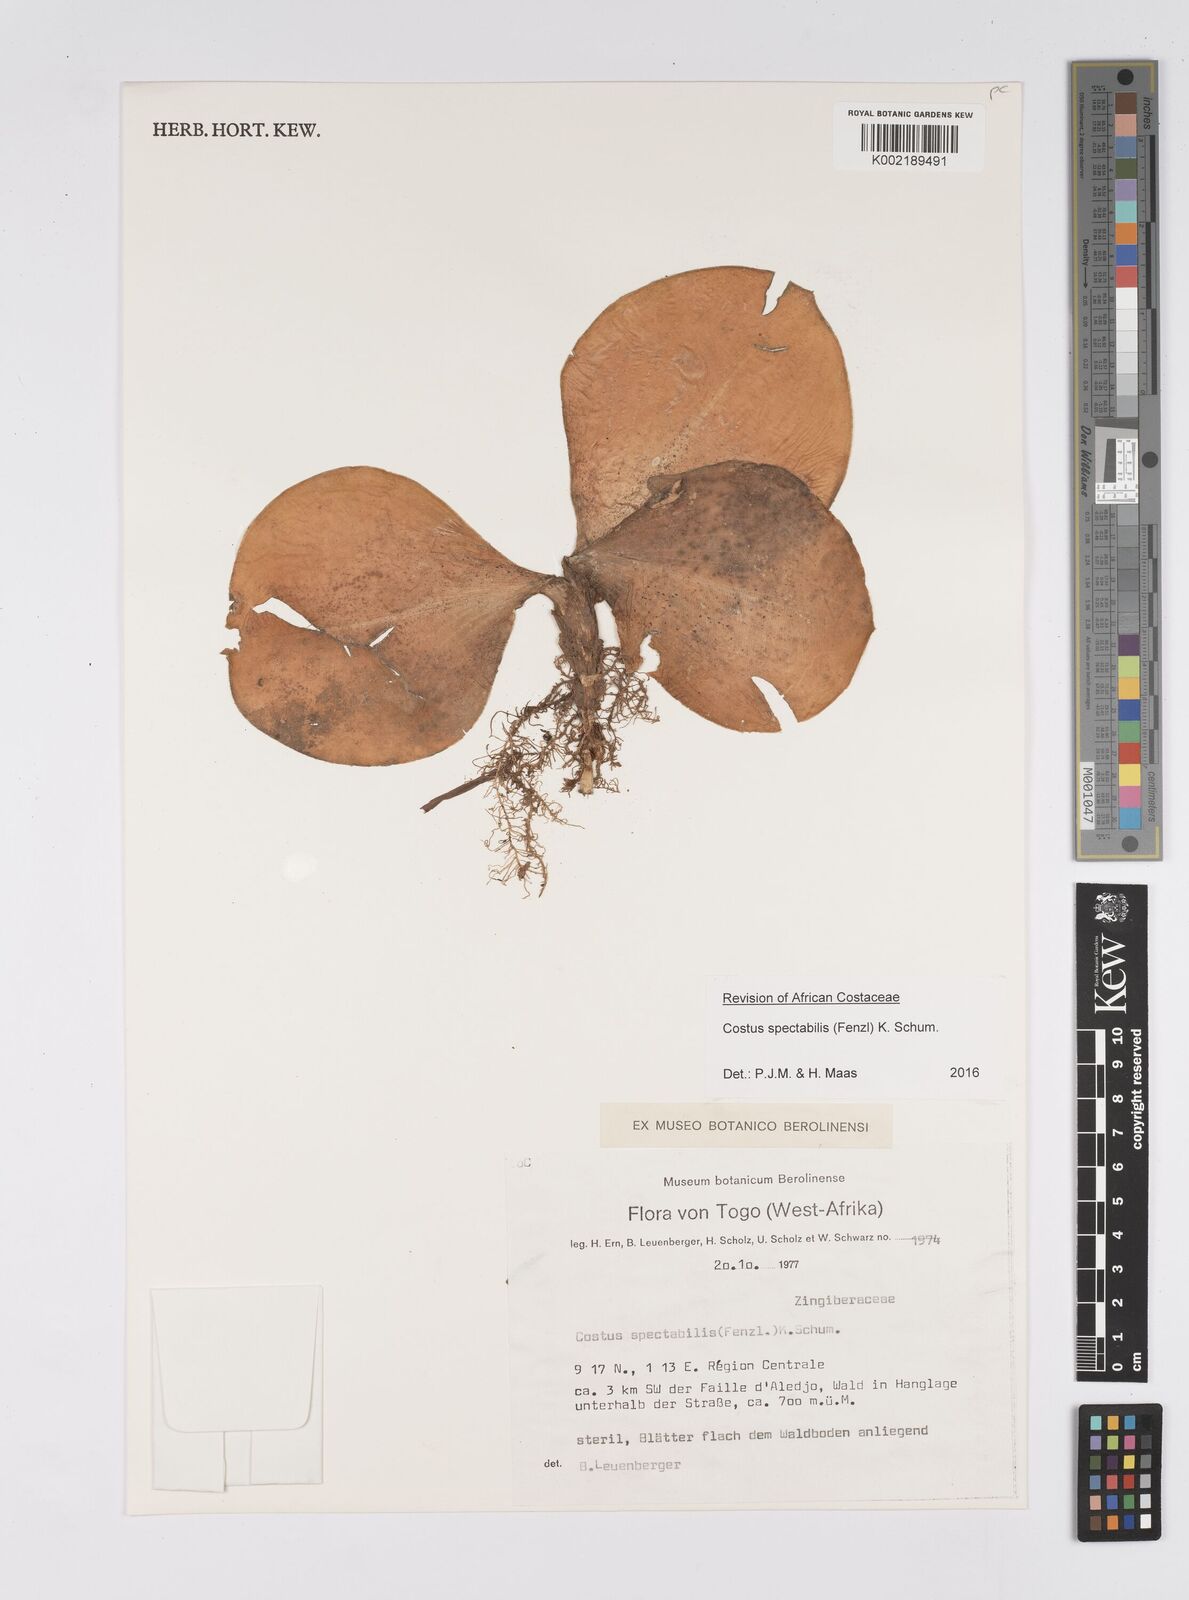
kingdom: Plantae
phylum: Tracheophyta
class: Liliopsida
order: Zingiberales
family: Costaceae
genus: Costus
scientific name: Costus spectabilis
